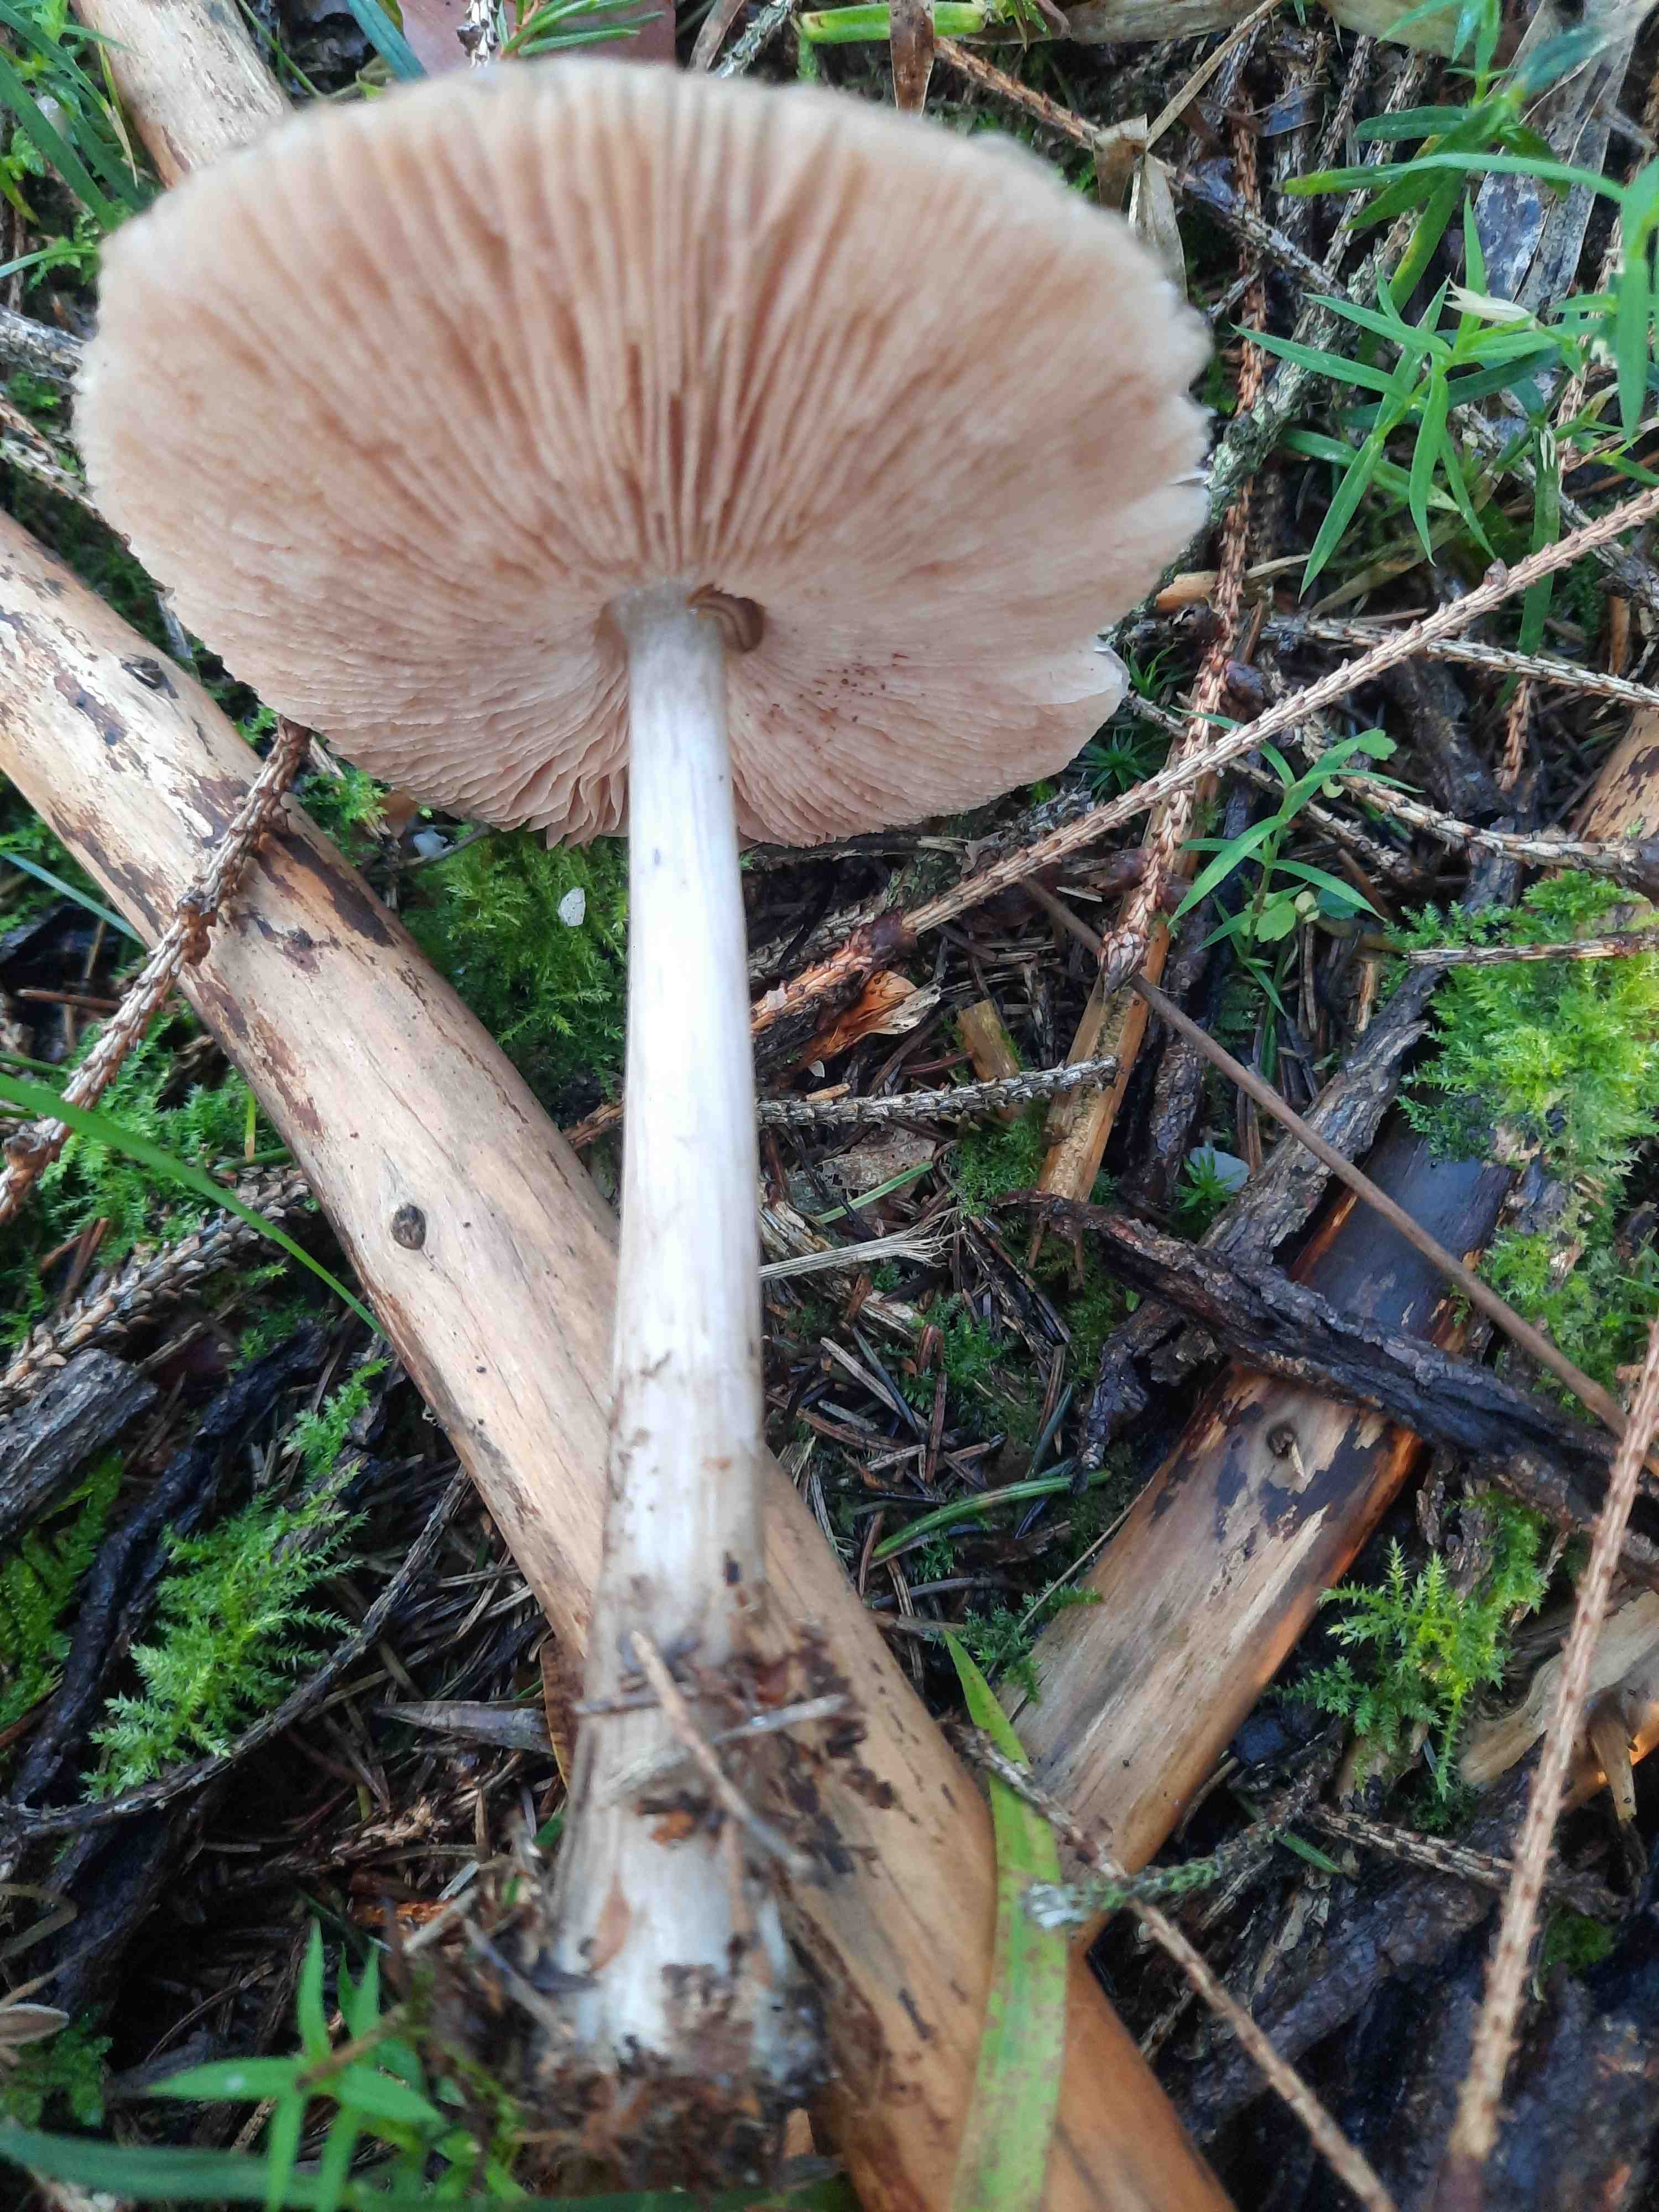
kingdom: Fungi
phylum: Basidiomycota
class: Agaricomycetes
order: Agaricales
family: Pluteaceae
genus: Pluteus
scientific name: Pluteus
